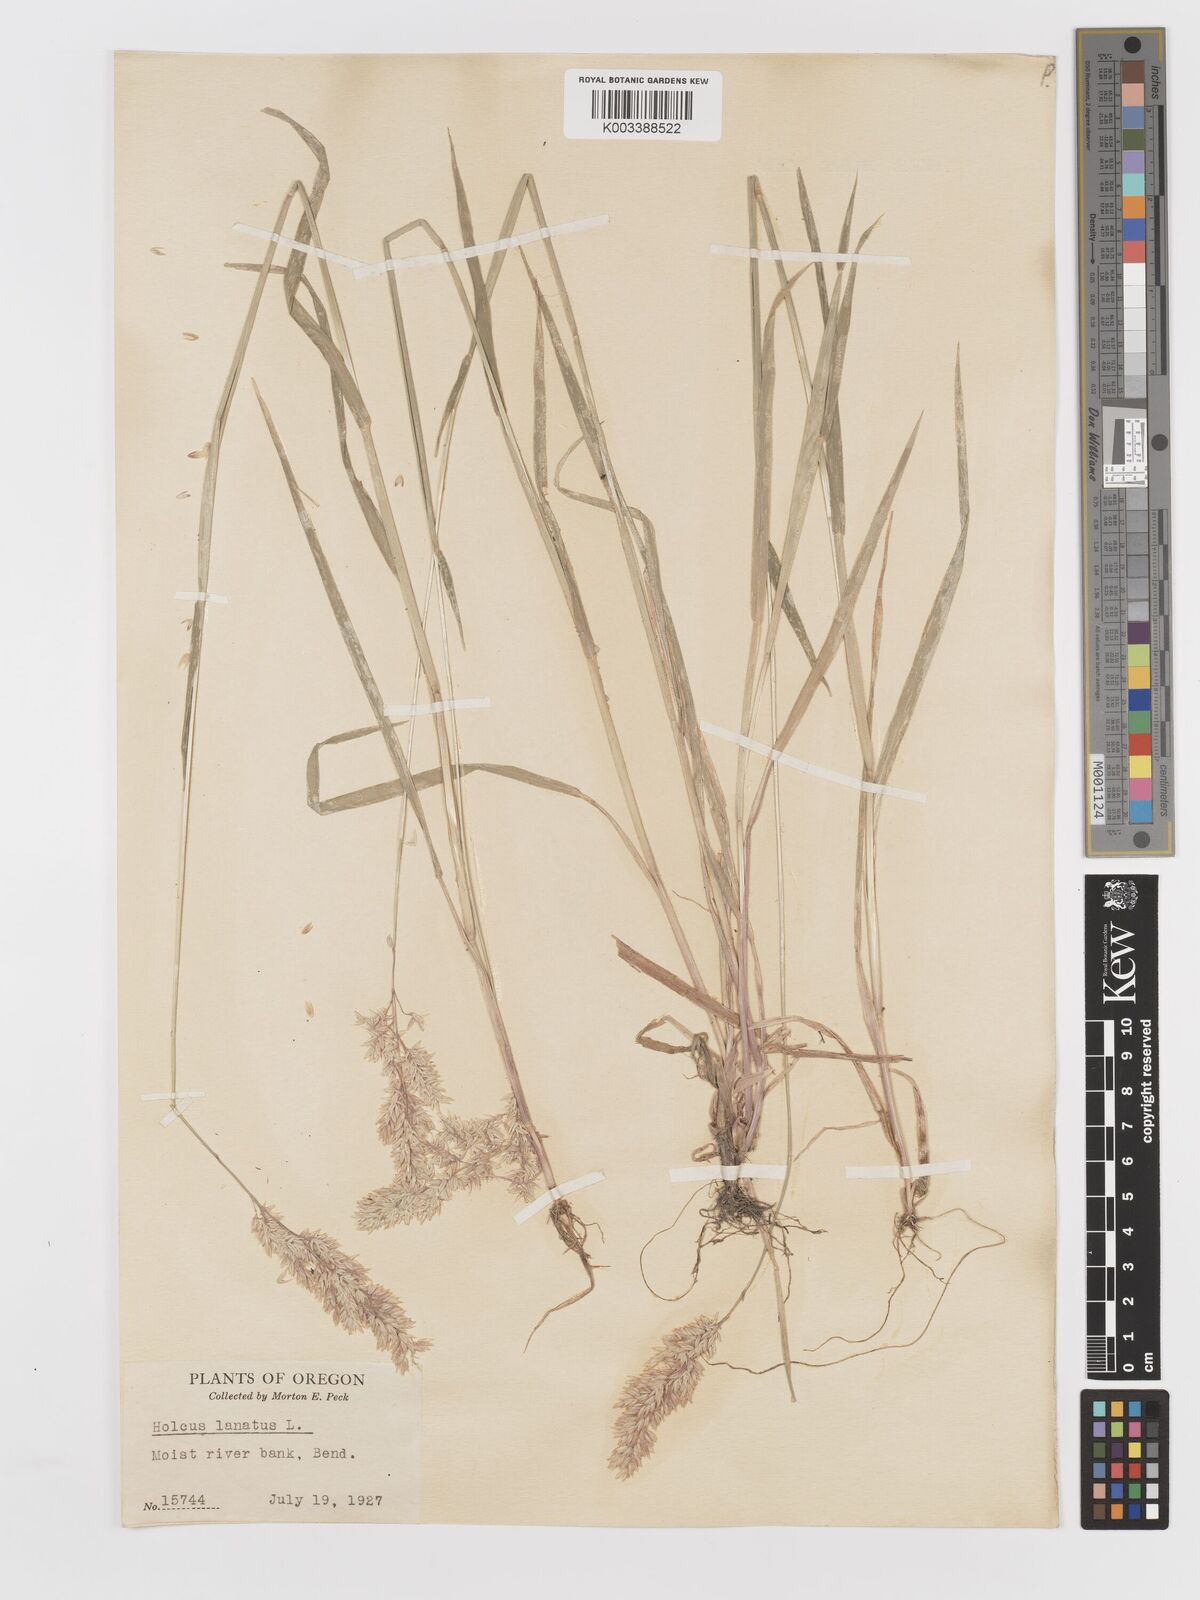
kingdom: Plantae
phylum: Tracheophyta
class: Liliopsida
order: Poales
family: Poaceae
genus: Holcus
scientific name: Holcus lanatus
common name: Yorkshire-fog
